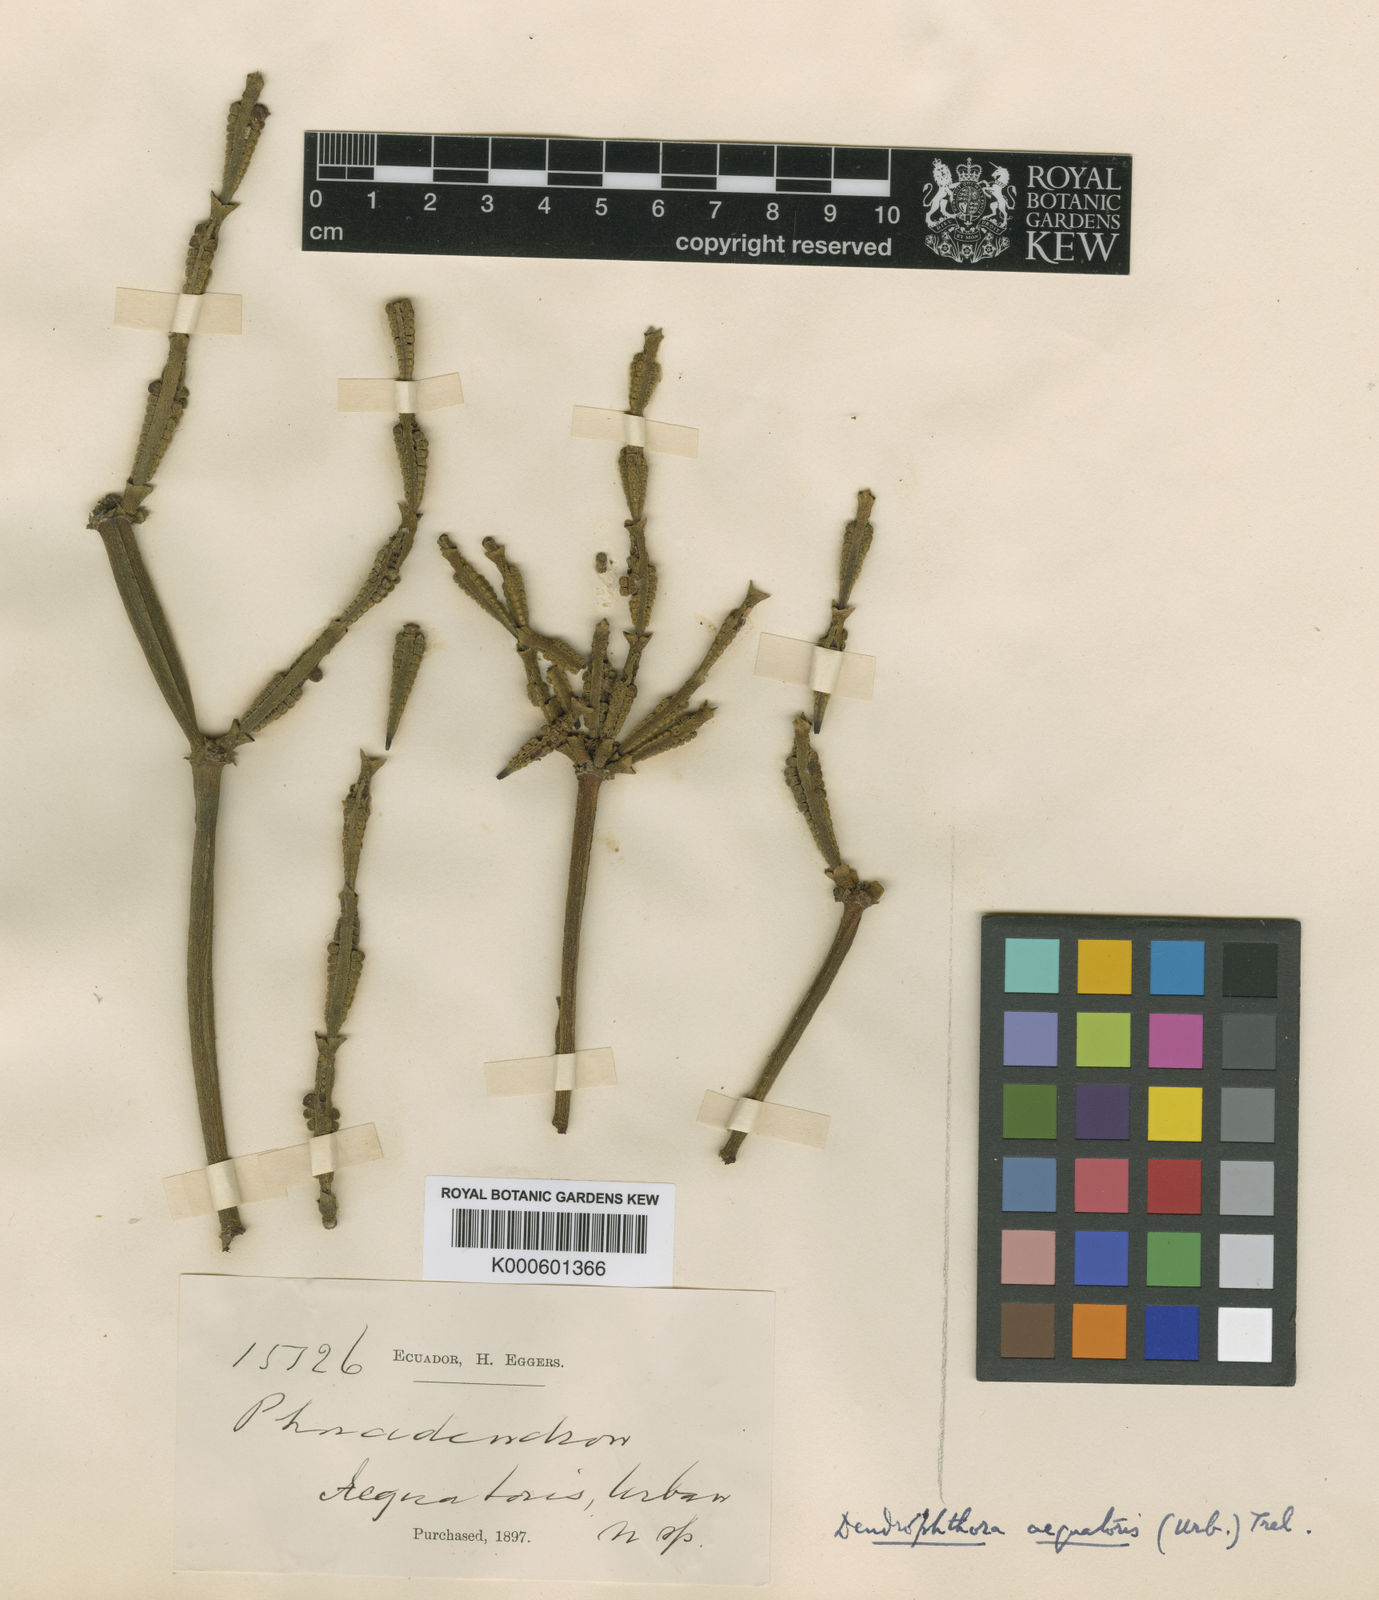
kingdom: Plantae
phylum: Tracheophyta
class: Magnoliopsida
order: Santalales
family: Viscaceae
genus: Phoradendron
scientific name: Phoradendron aequatoris
